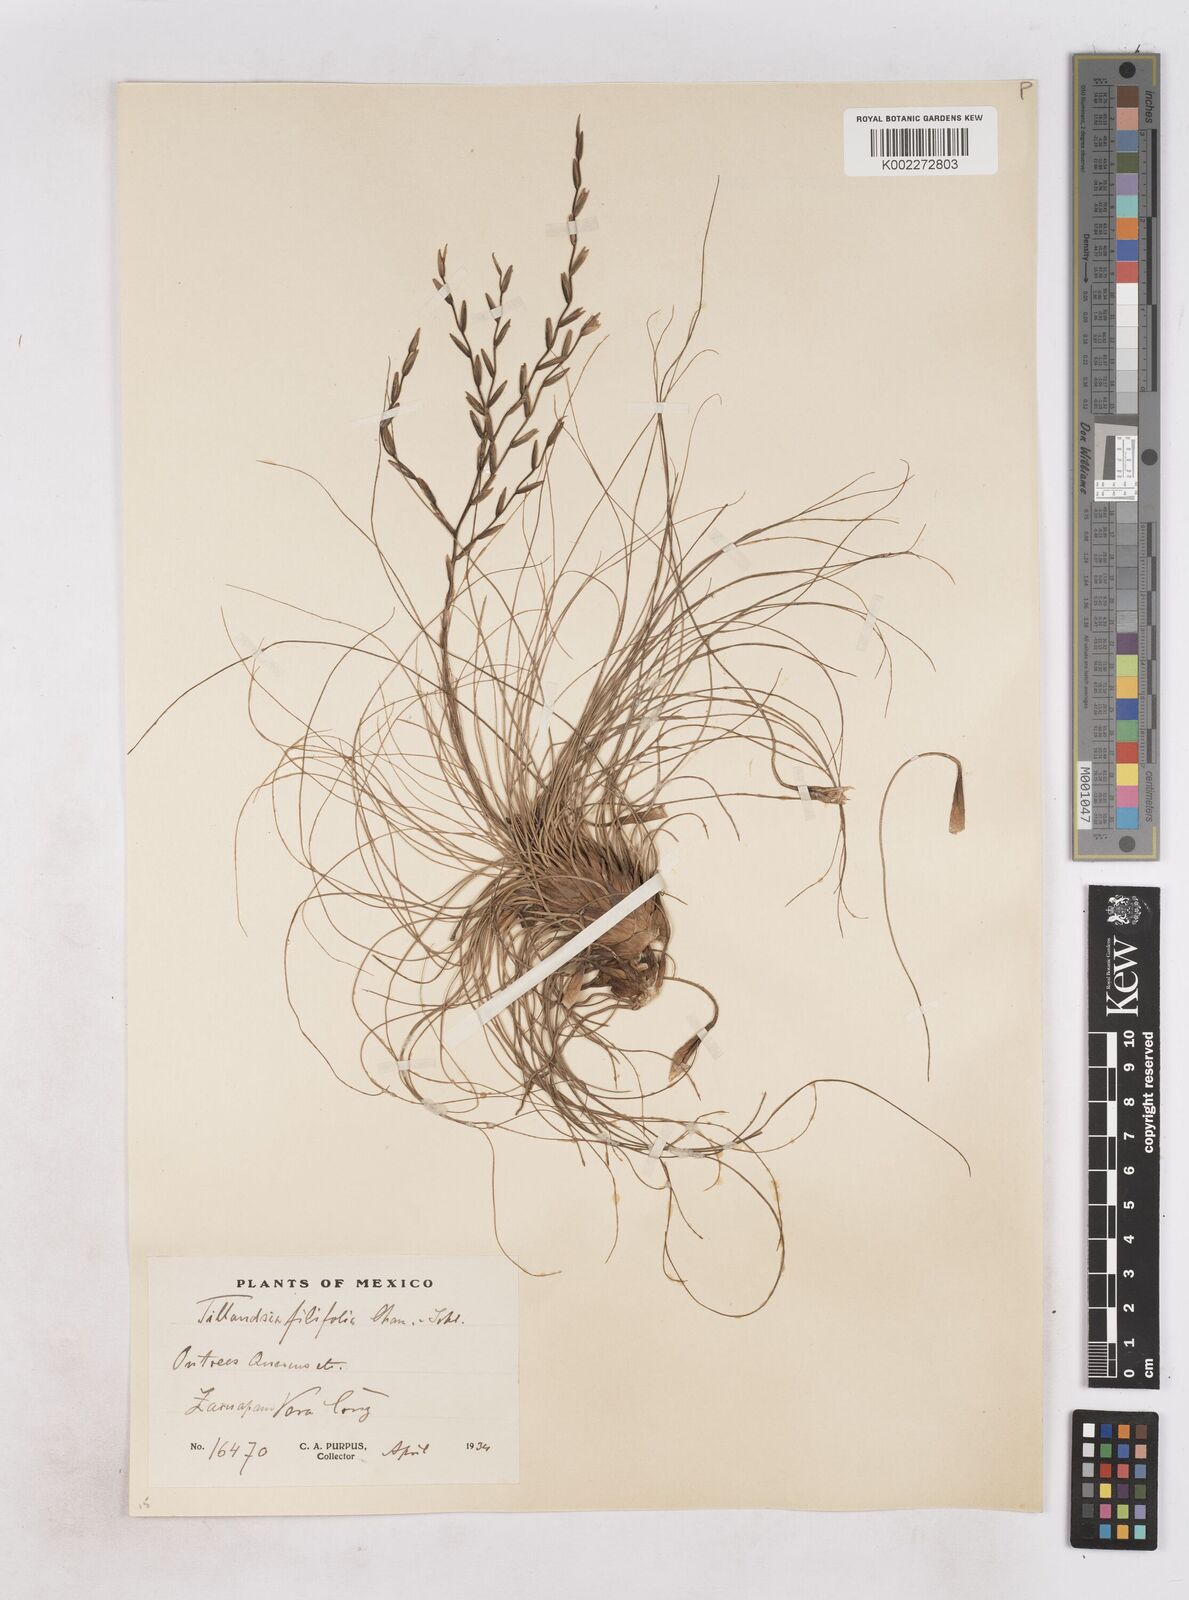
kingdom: Plantae
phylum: Tracheophyta
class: Liliopsida
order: Poales
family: Bromeliaceae
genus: Tillandsia
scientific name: Tillandsia filifolia
